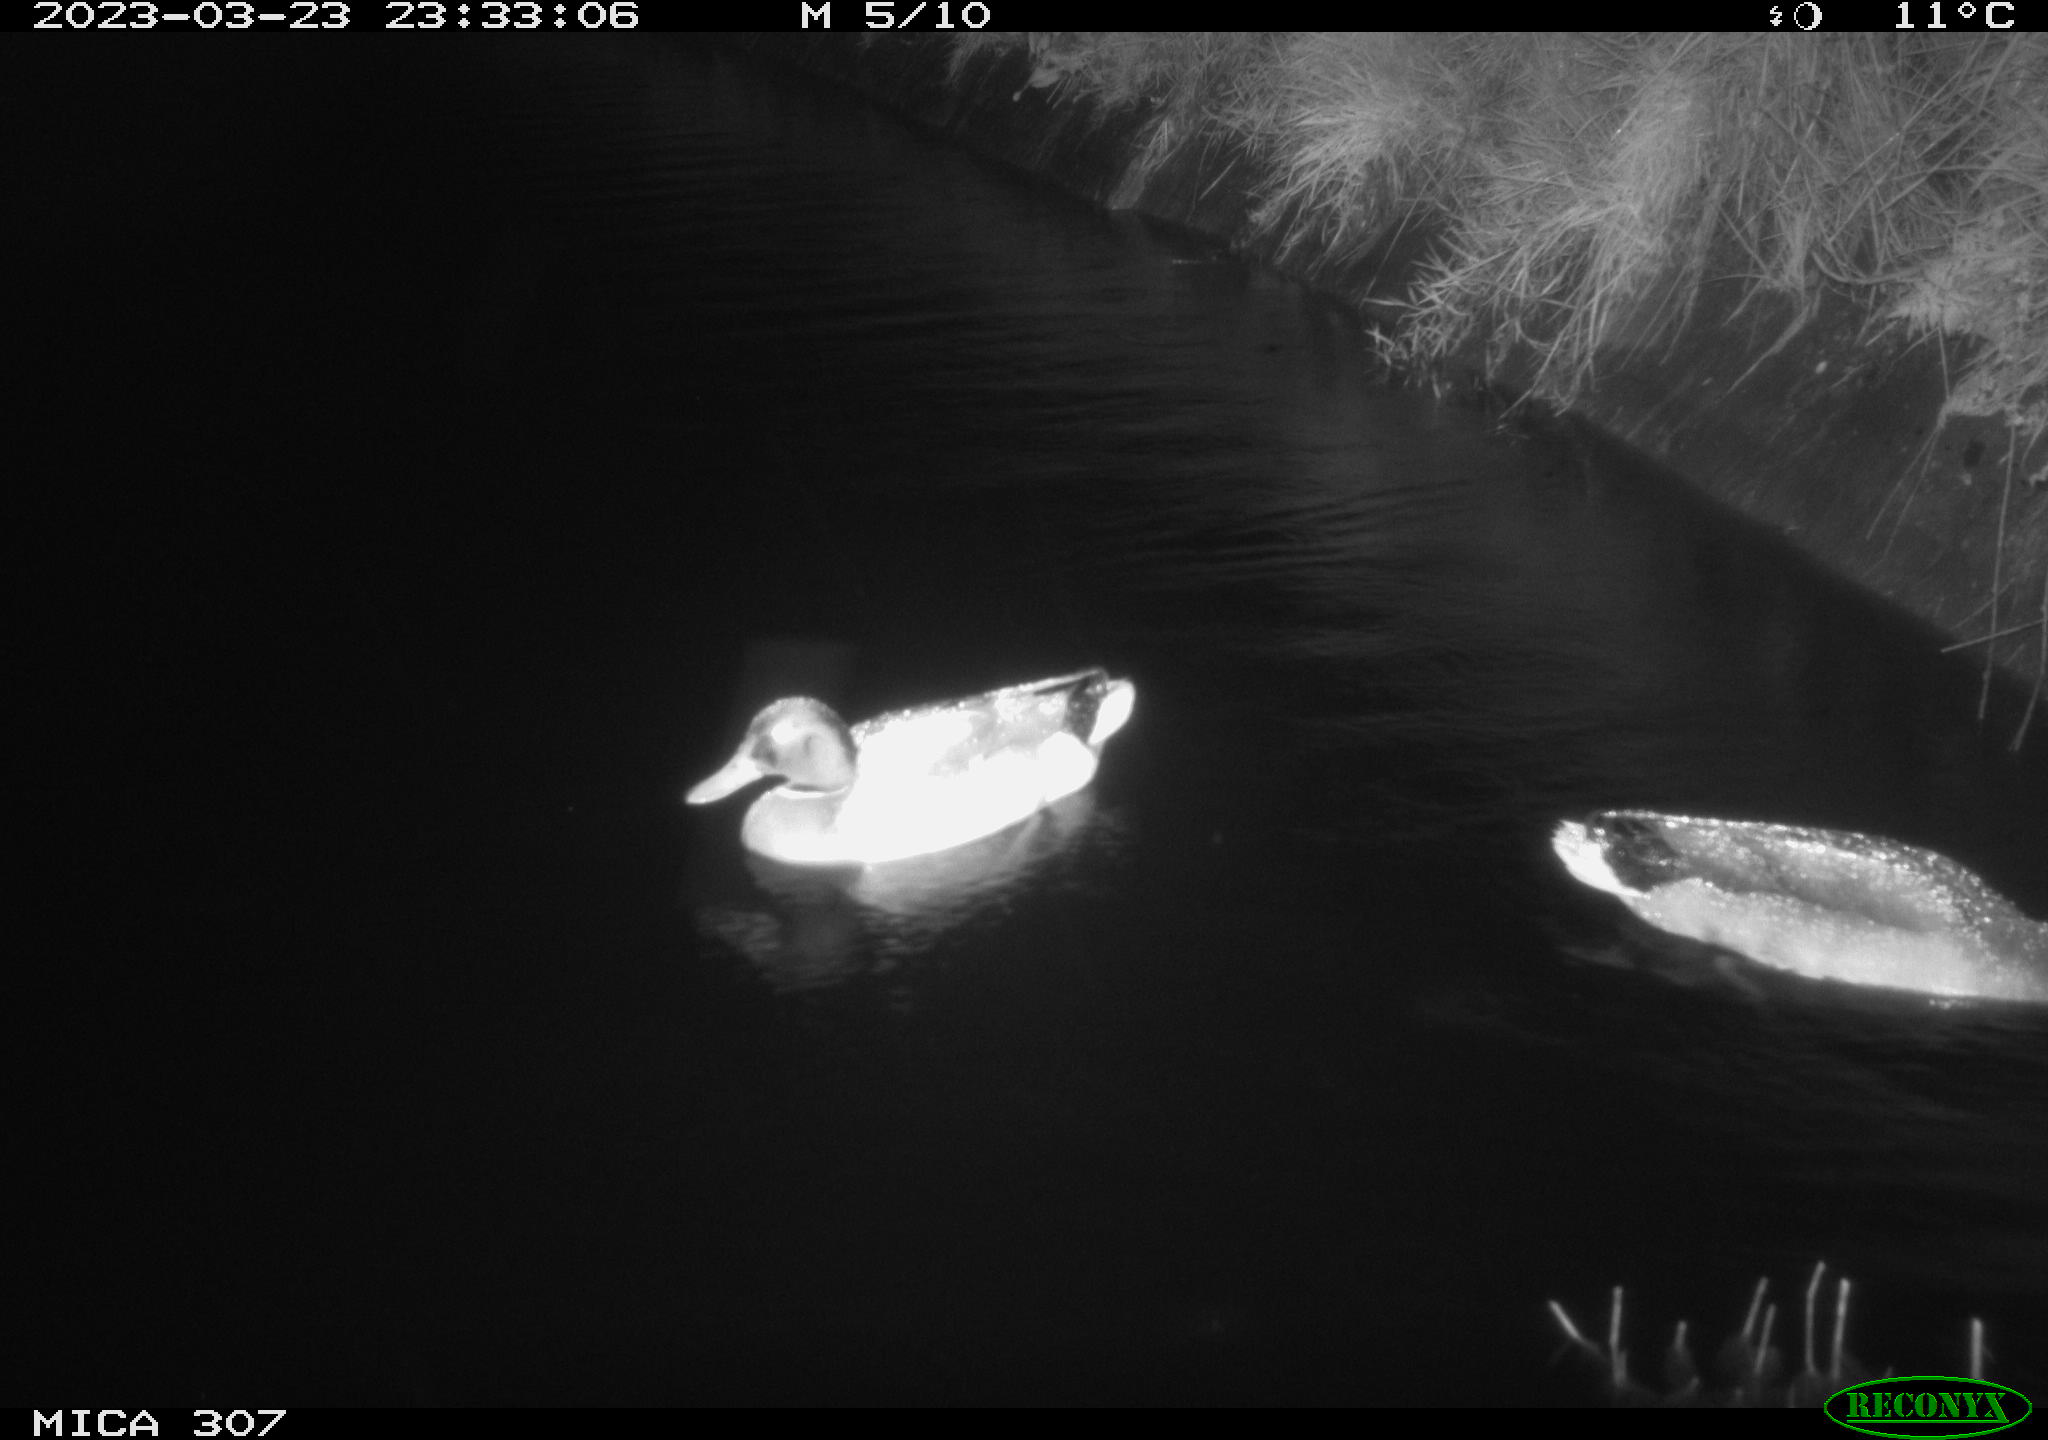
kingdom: Animalia
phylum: Chordata
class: Aves
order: Anseriformes
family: Anatidae
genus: Anas
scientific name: Anas platyrhynchos
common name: Mallard
